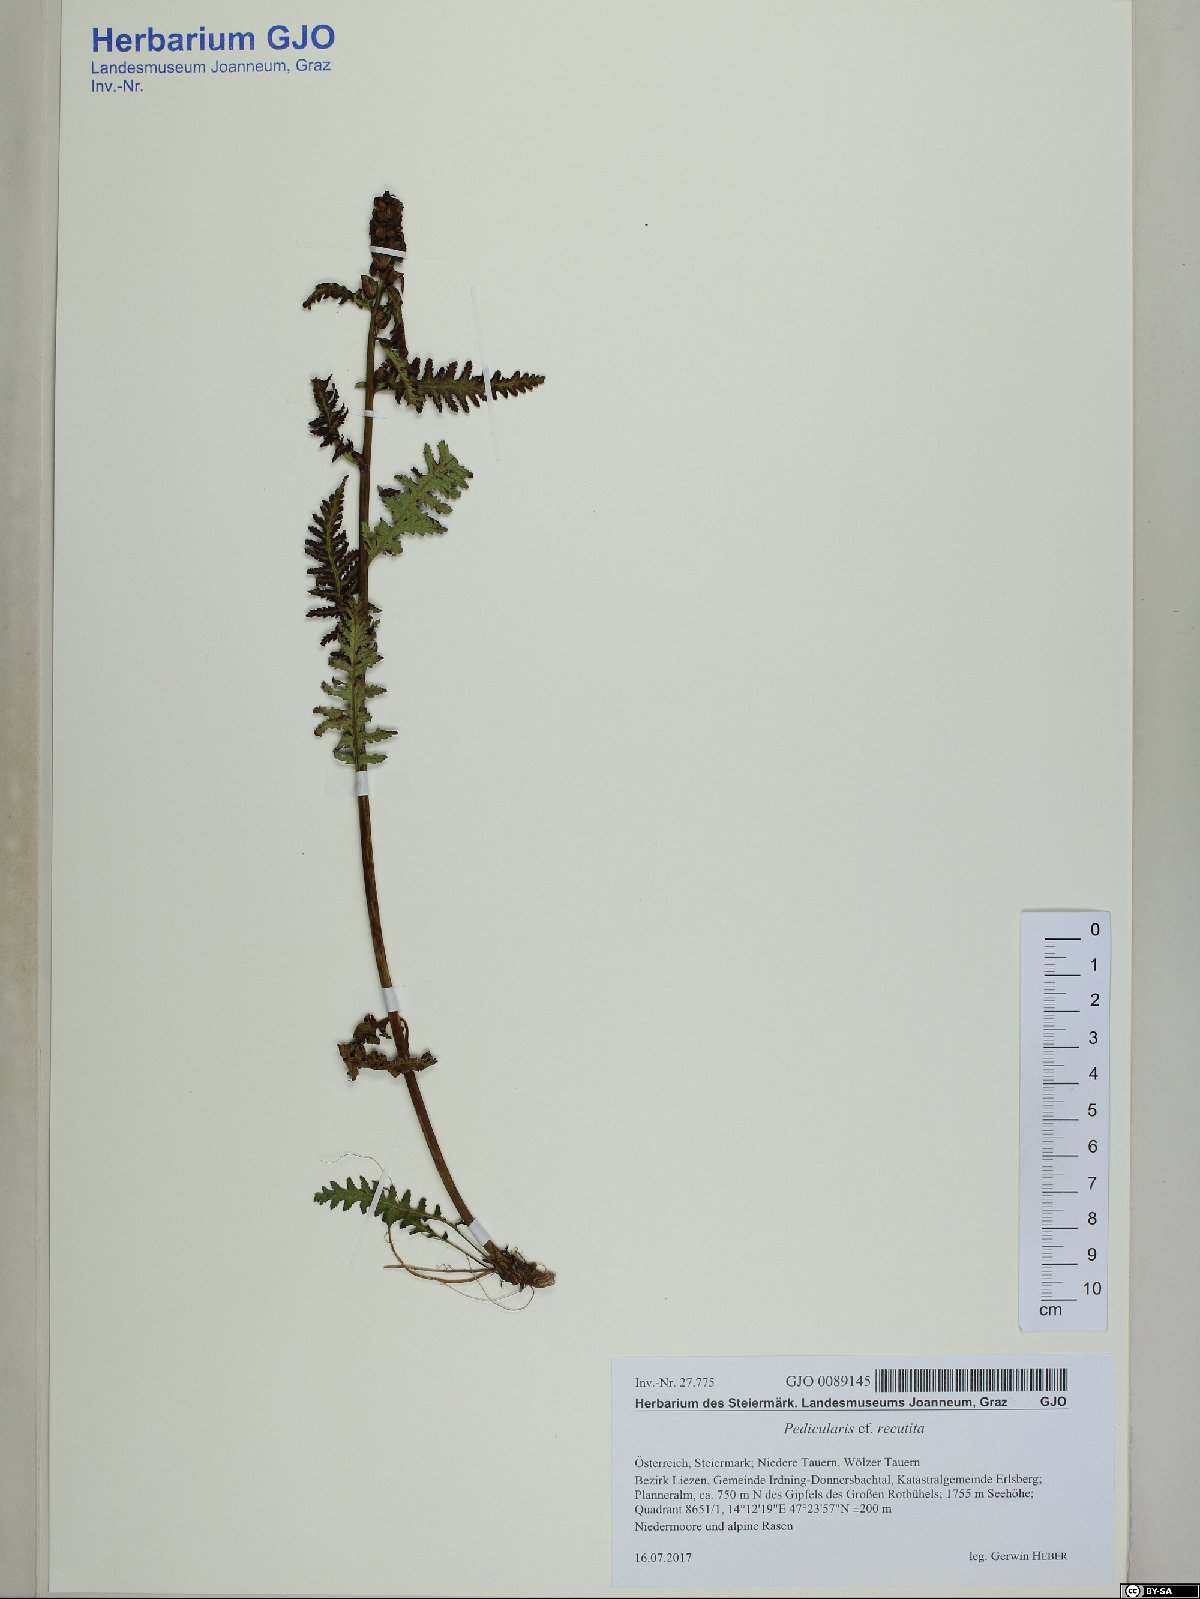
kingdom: Plantae
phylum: Tracheophyta
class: Magnoliopsida
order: Lamiales
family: Orobanchaceae
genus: Pedicularis
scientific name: Pedicularis recutita
